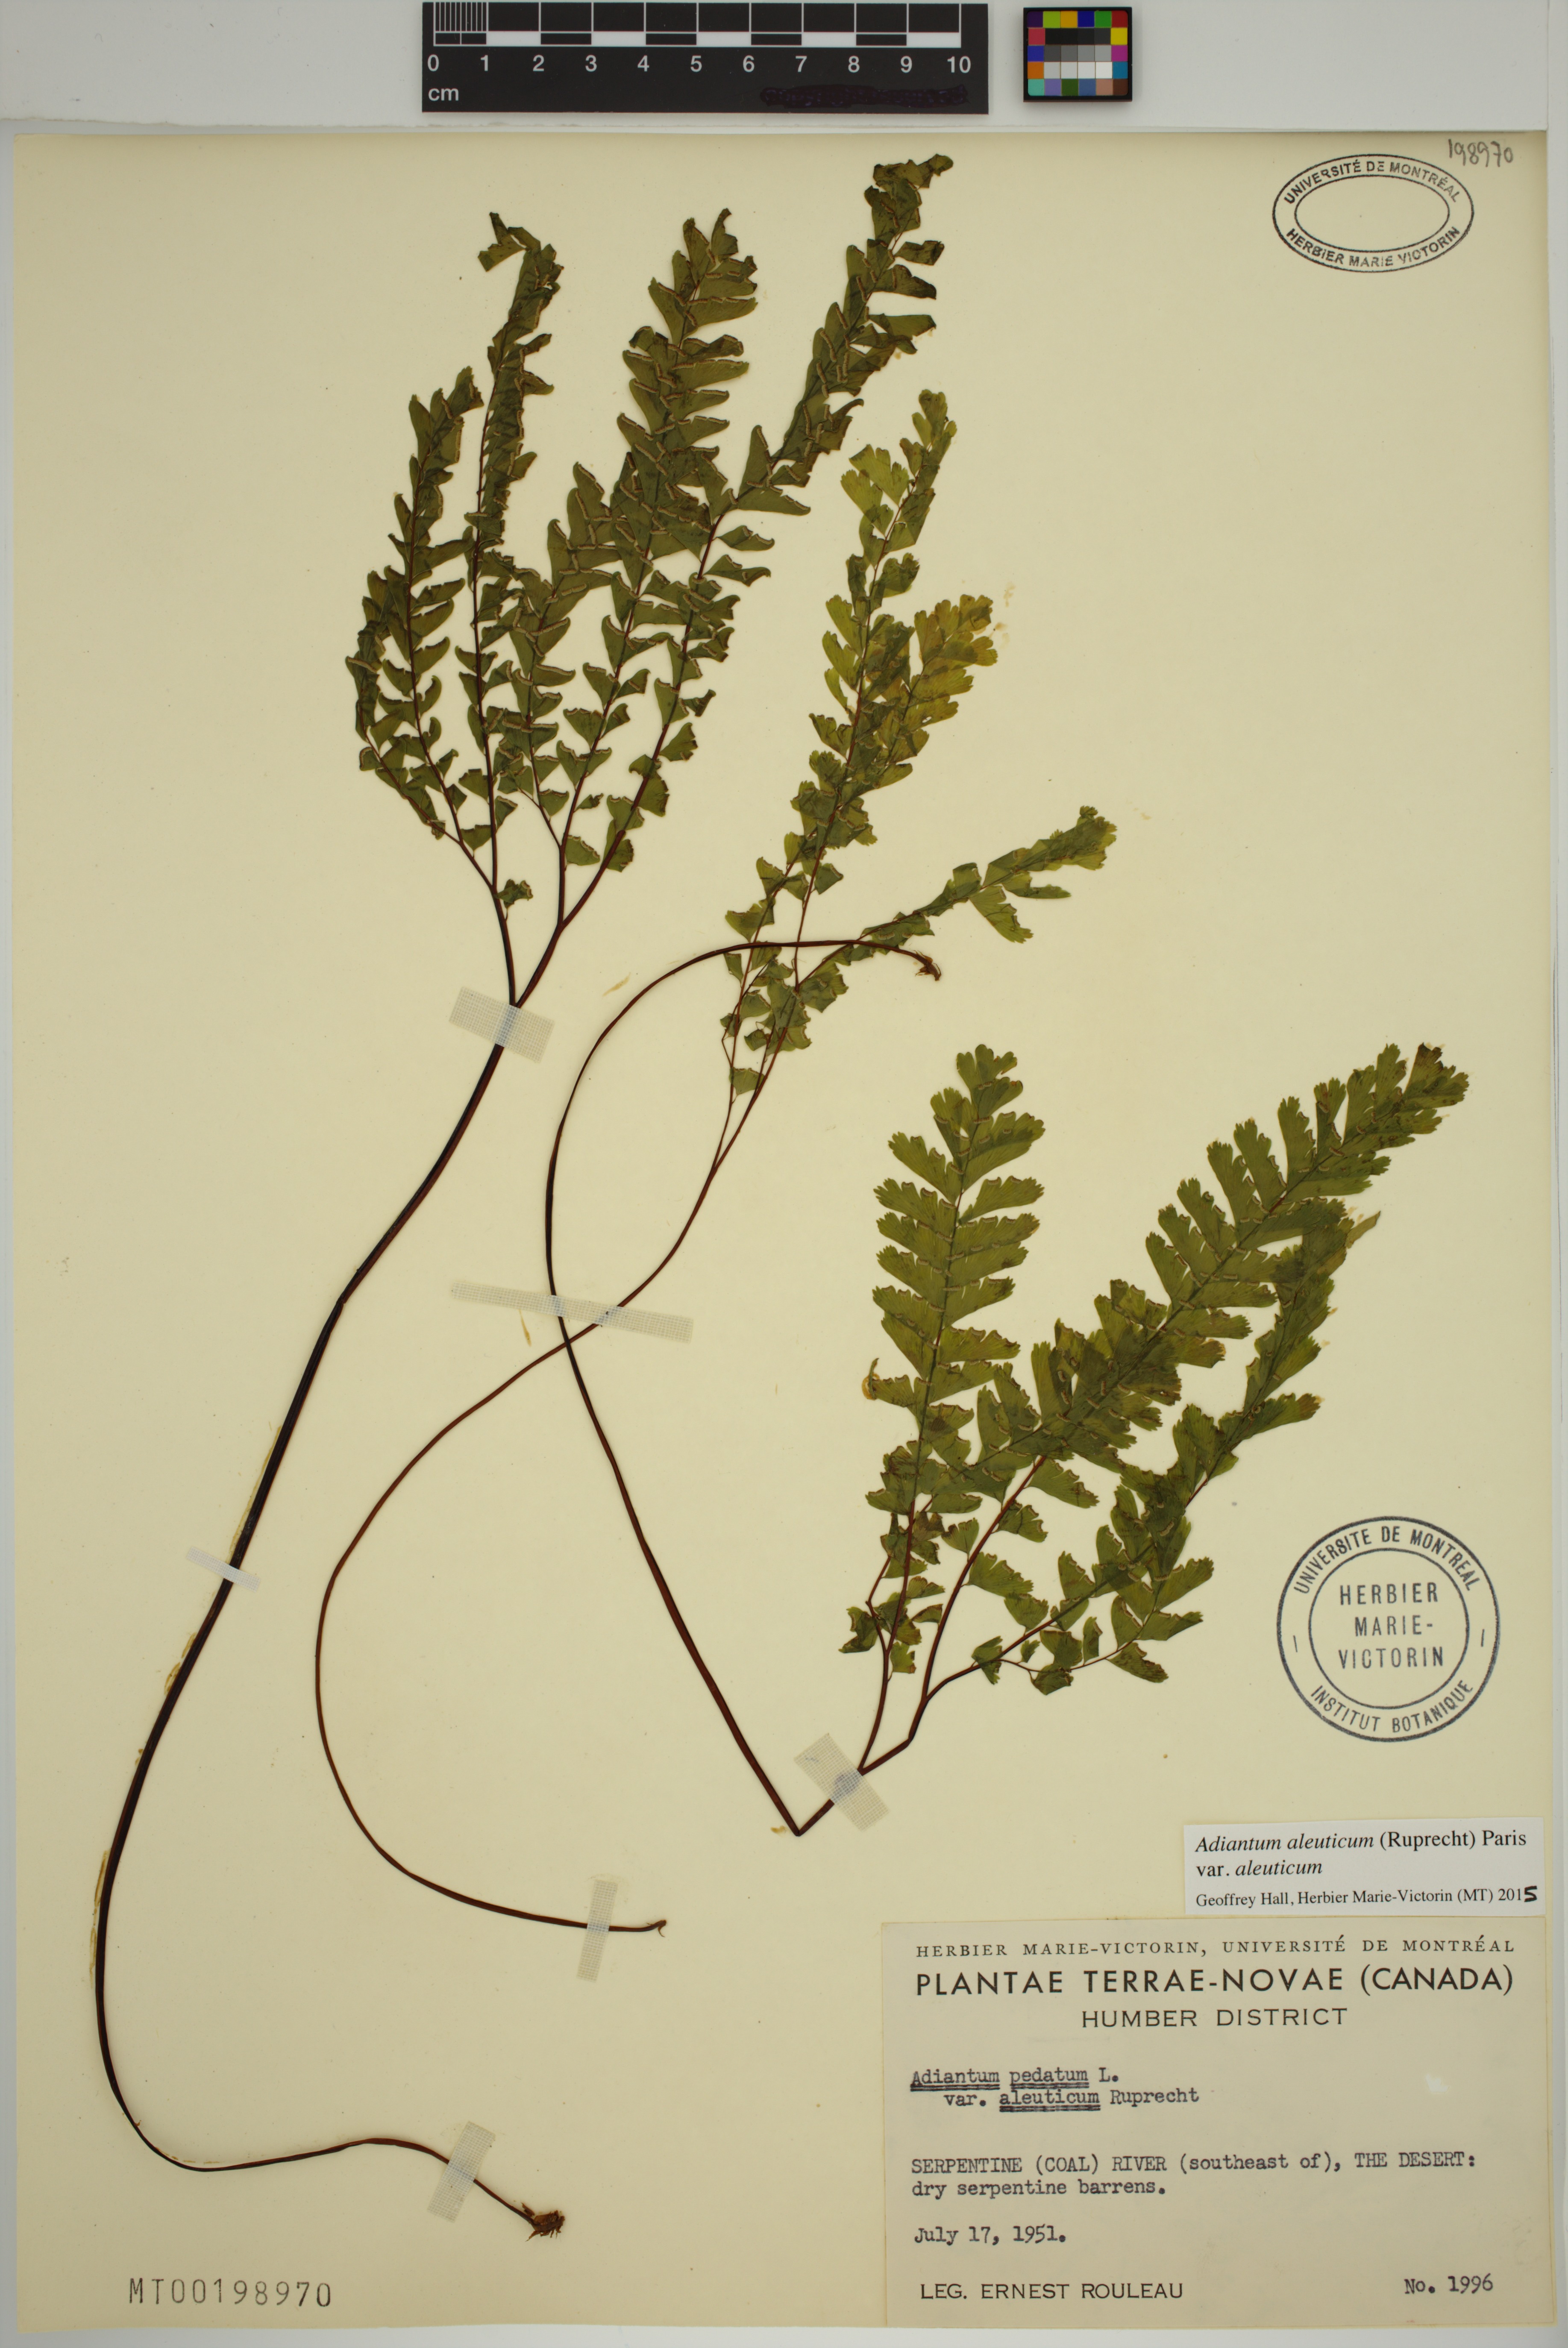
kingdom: Plantae
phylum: Tracheophyta
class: Polypodiopsida
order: Polypodiales
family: Pteridaceae
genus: Adiantum
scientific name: Adiantum aleuticum
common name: Aleutian maidenhair fern
